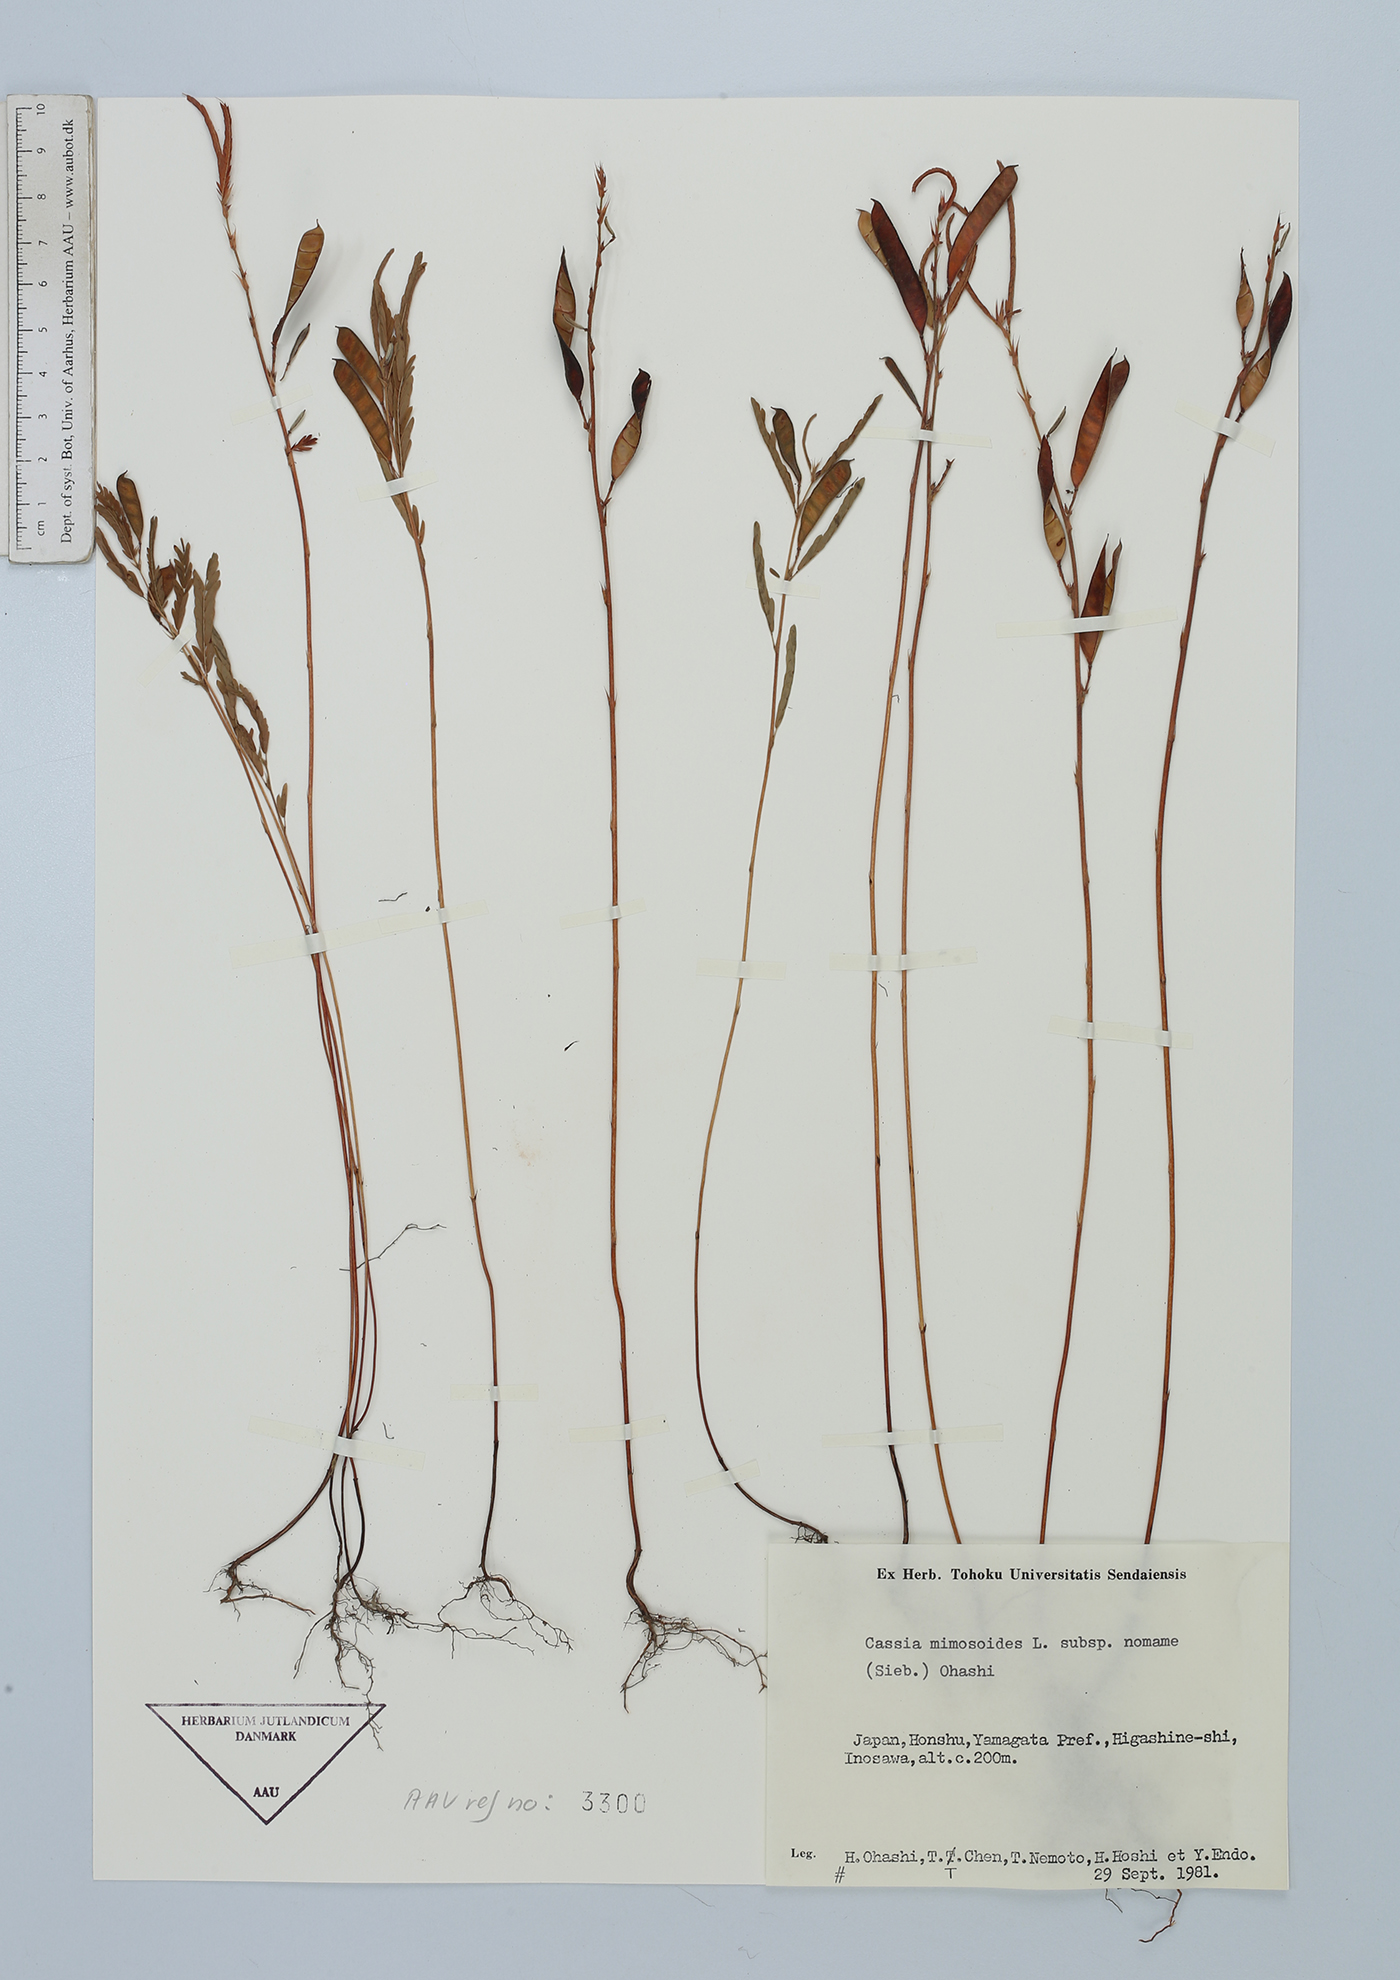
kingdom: Plantae
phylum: Tracheophyta
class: Magnoliopsida
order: Fabales
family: Fabaceae
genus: Chamaecrista
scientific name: Chamaecrista nomame
